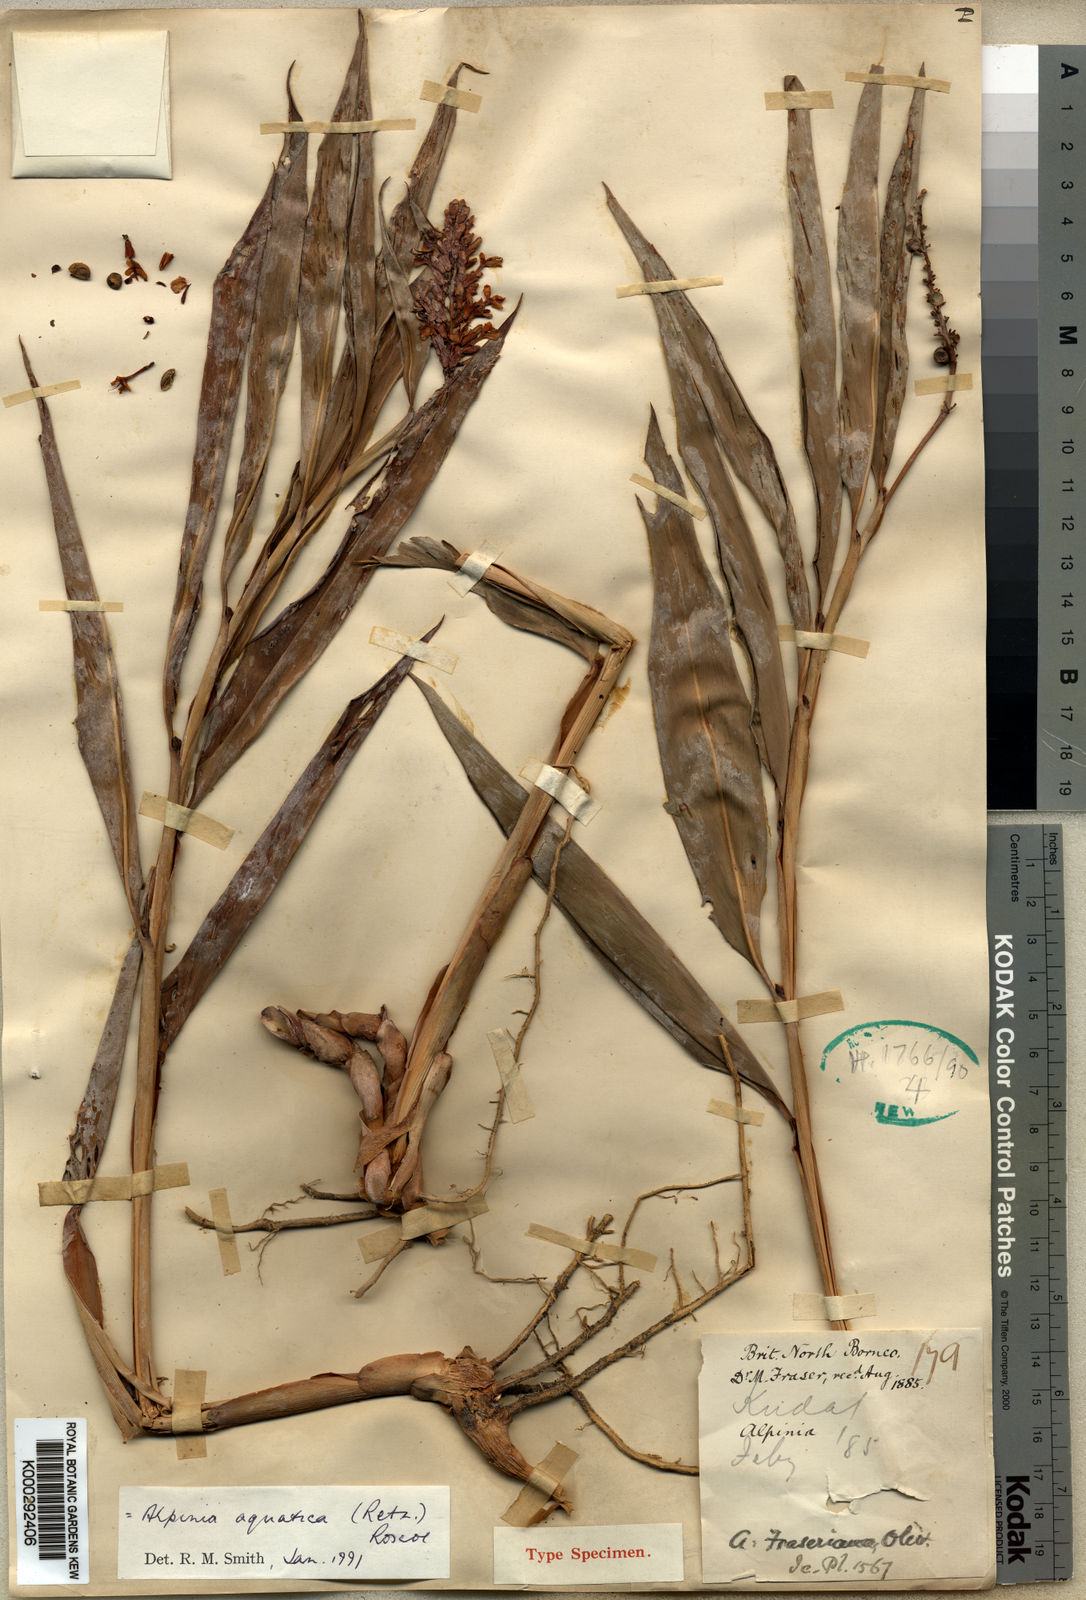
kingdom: Plantae
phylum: Tracheophyta
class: Liliopsida
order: Zingiberales
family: Zingiberaceae
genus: Alpinia
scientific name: Alpinia aquatica
